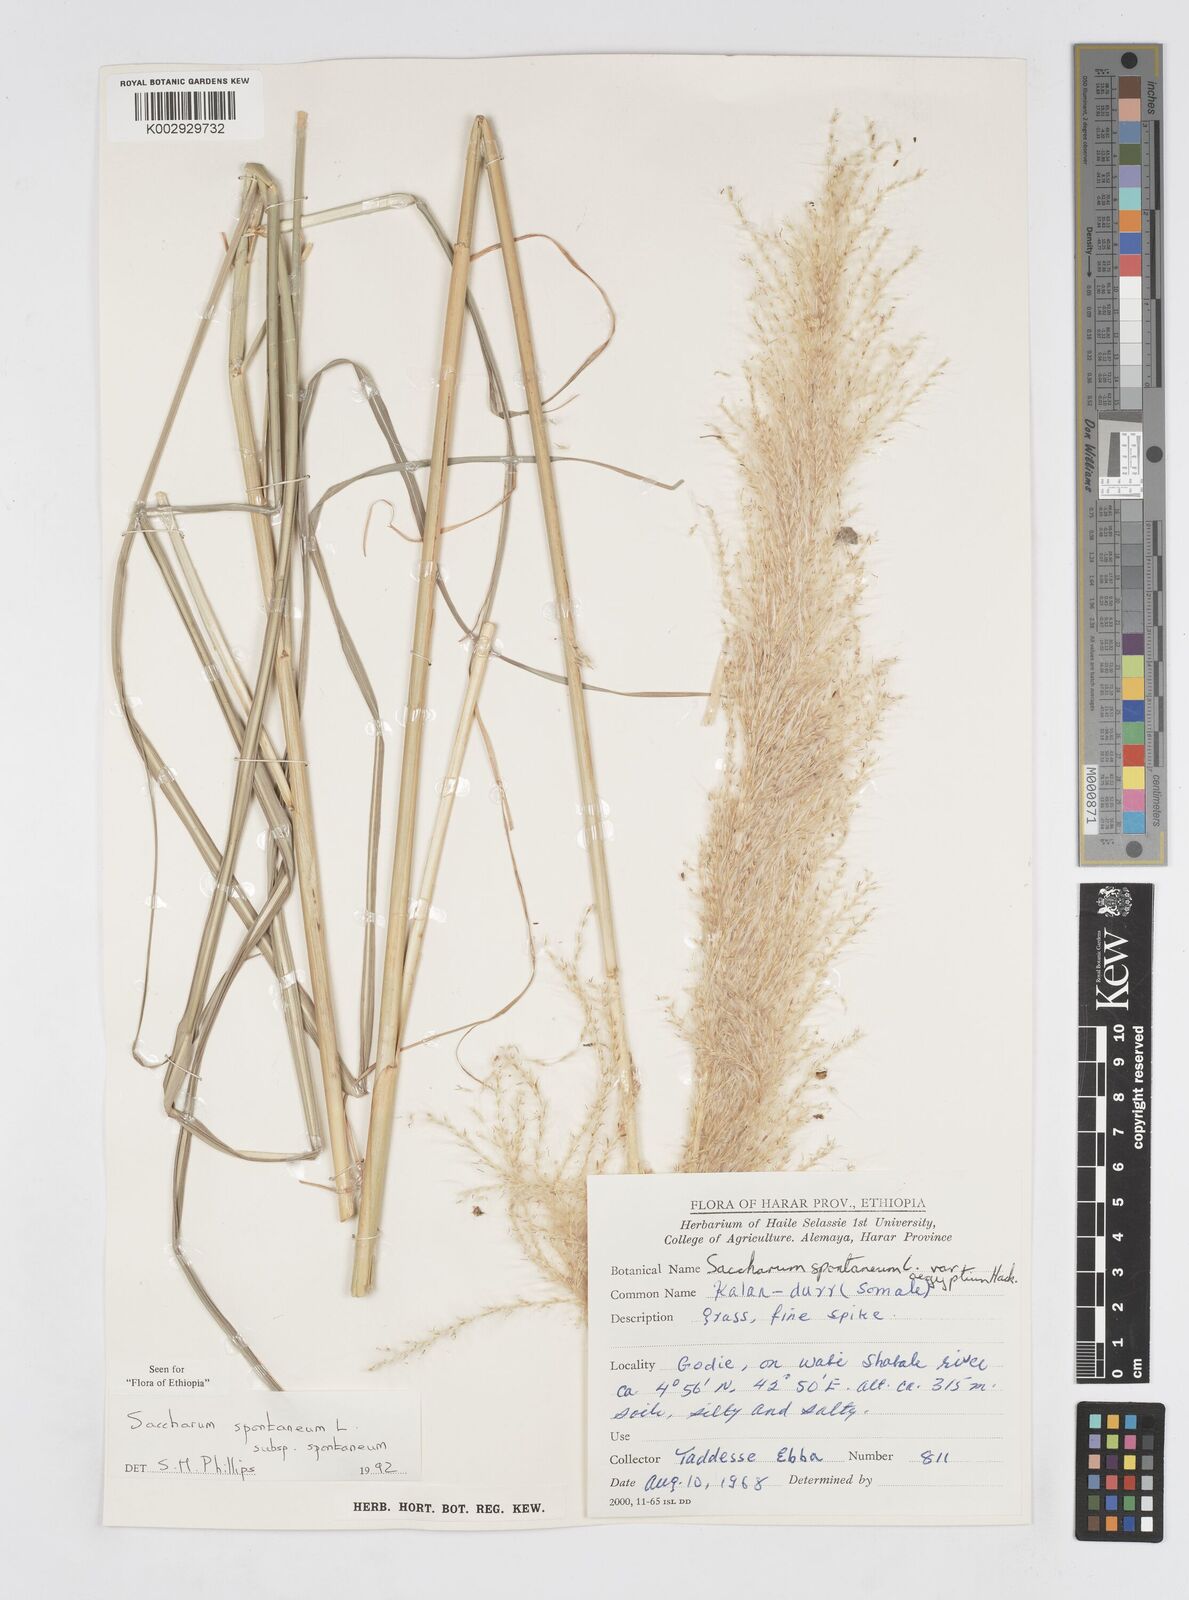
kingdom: Plantae
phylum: Tracheophyta
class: Liliopsida
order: Poales
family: Poaceae
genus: Saccharum
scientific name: Saccharum spontaneum
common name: Wild sugarcane
